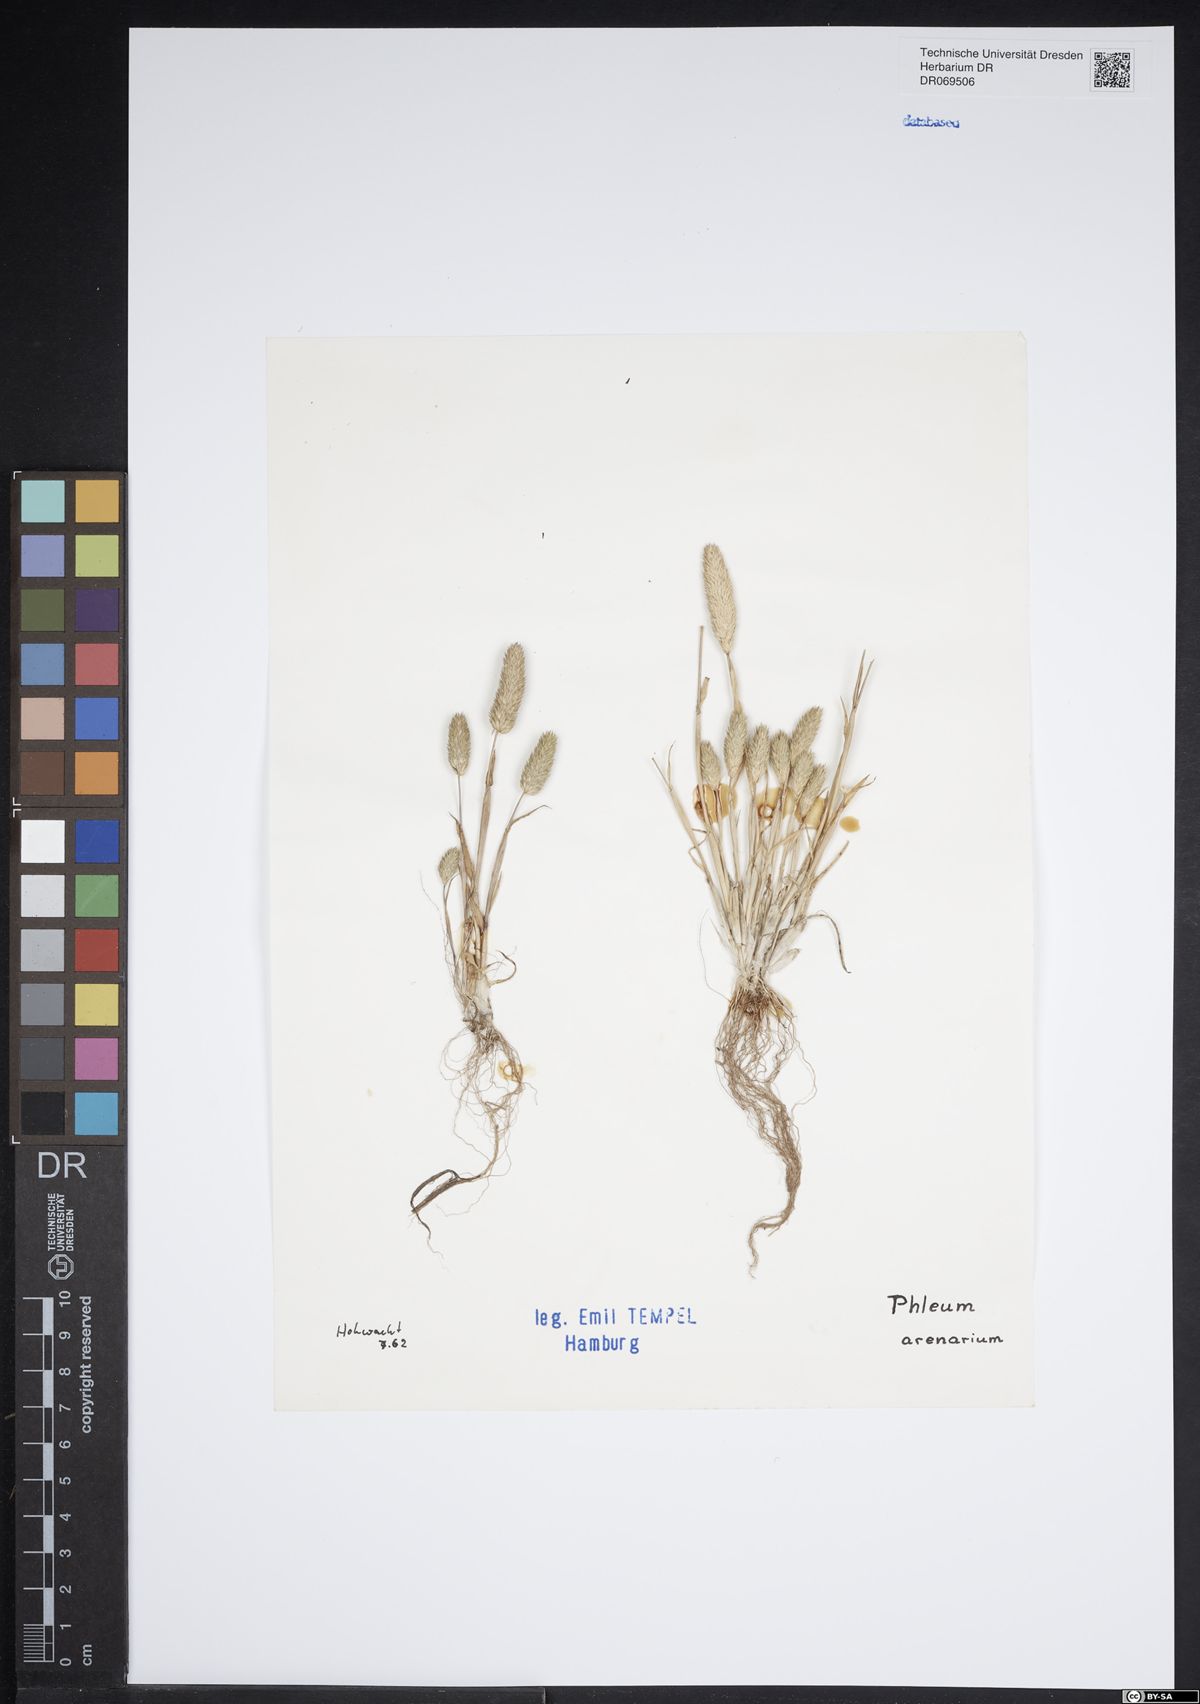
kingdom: Plantae
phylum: Tracheophyta
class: Liliopsida
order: Poales
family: Poaceae
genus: Phleum
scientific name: Phleum arenarium
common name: Sand cat's-tail
